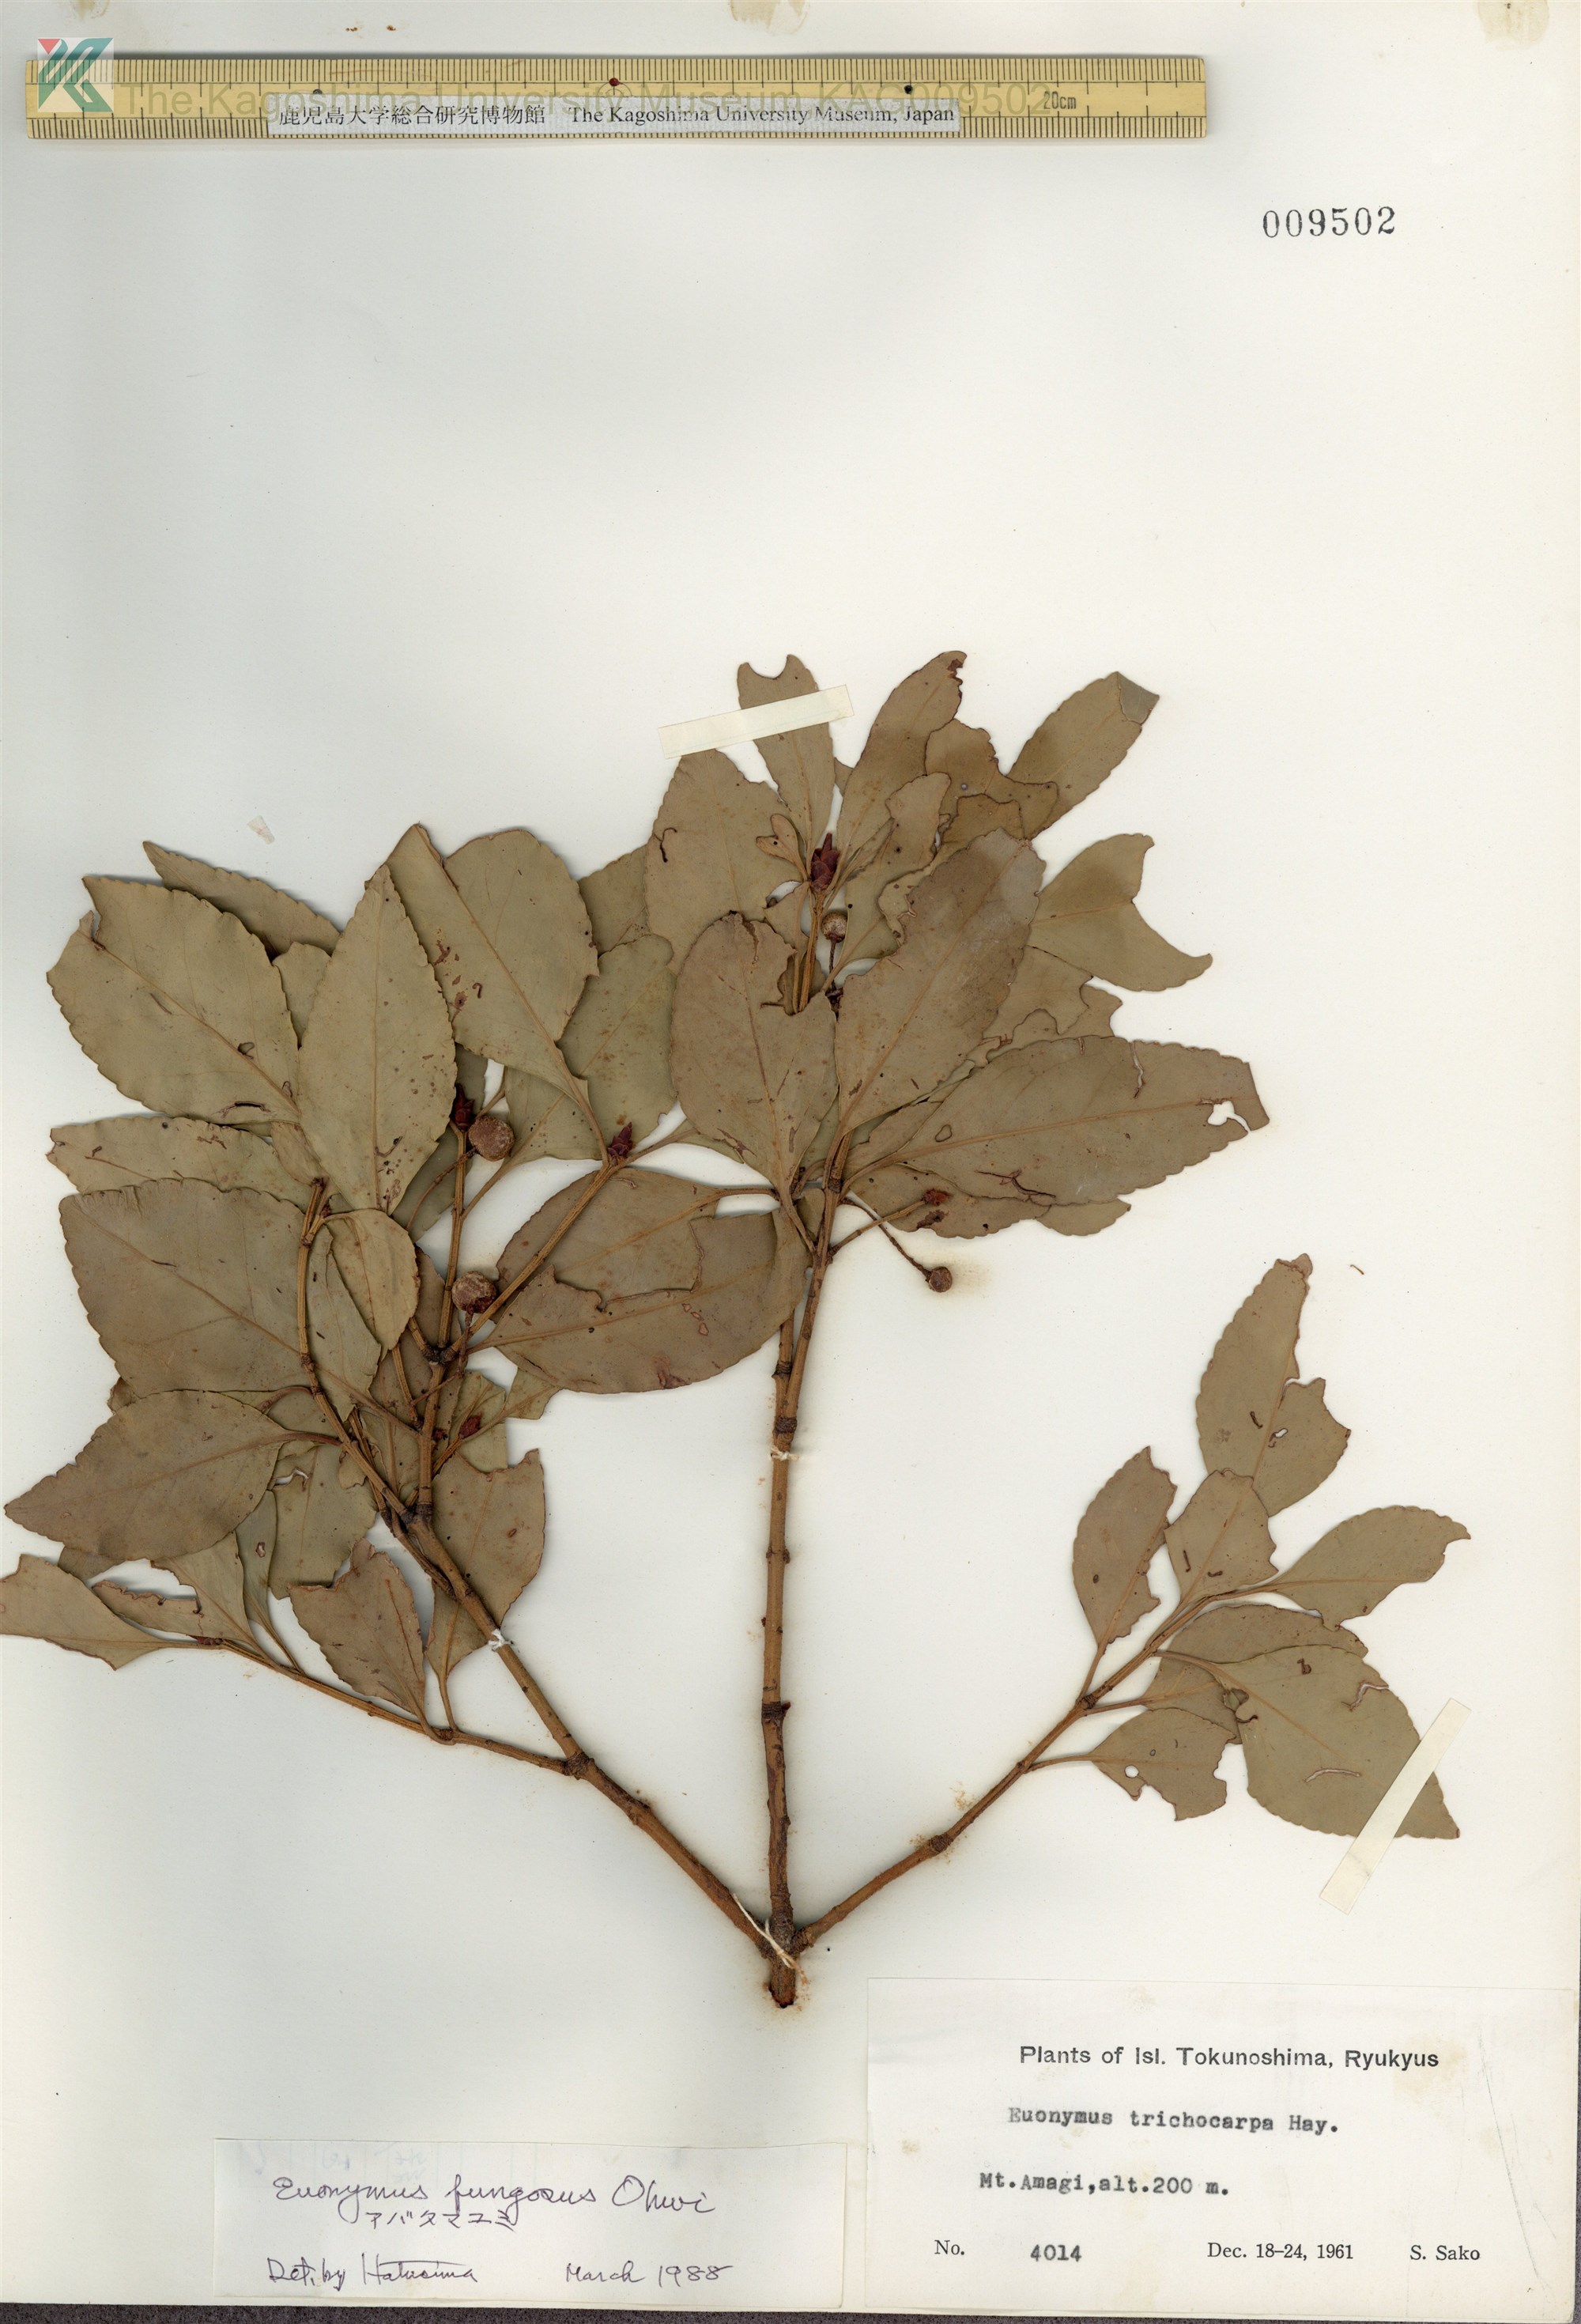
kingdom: Plantae
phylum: Tracheophyta
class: Magnoliopsida
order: Celastrales
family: Celastraceae
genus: Euonymus
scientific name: Euonymus echinatus
